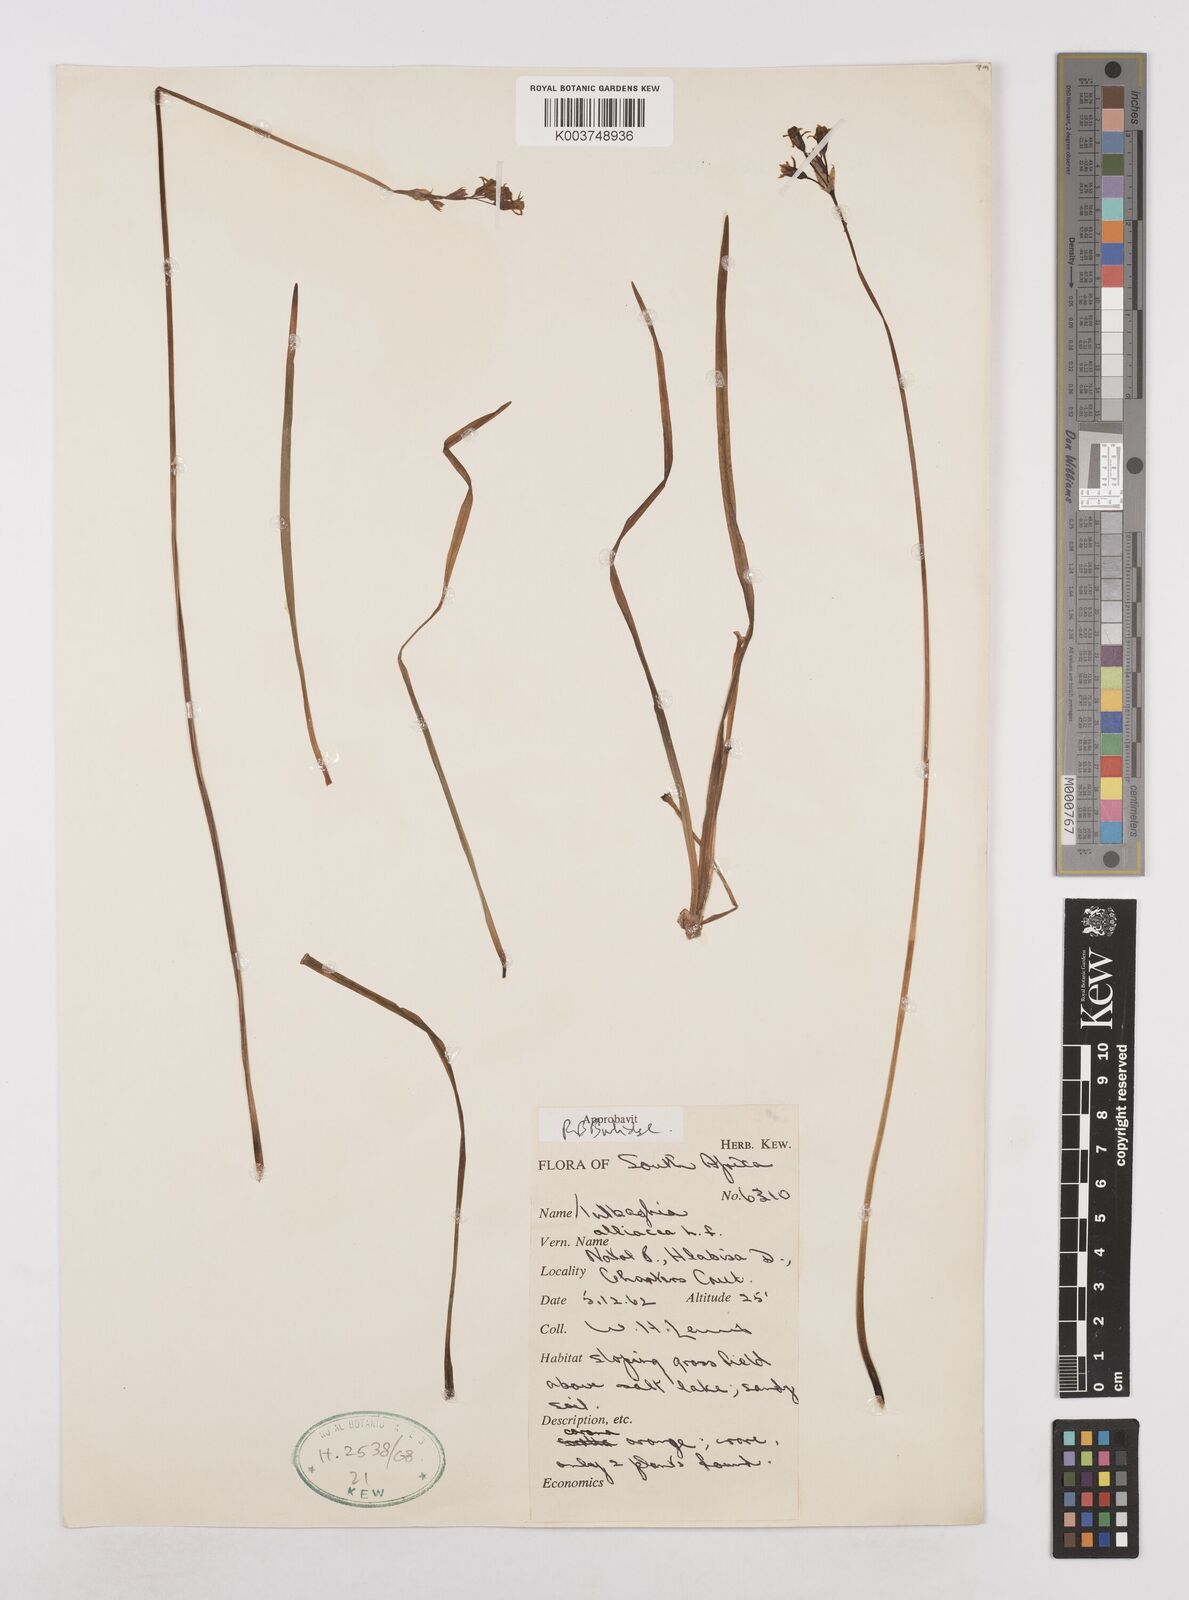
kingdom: Plantae
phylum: Tracheophyta
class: Liliopsida
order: Asparagales
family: Amaryllidaceae
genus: Tulbaghia
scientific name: Tulbaghia alliacea
